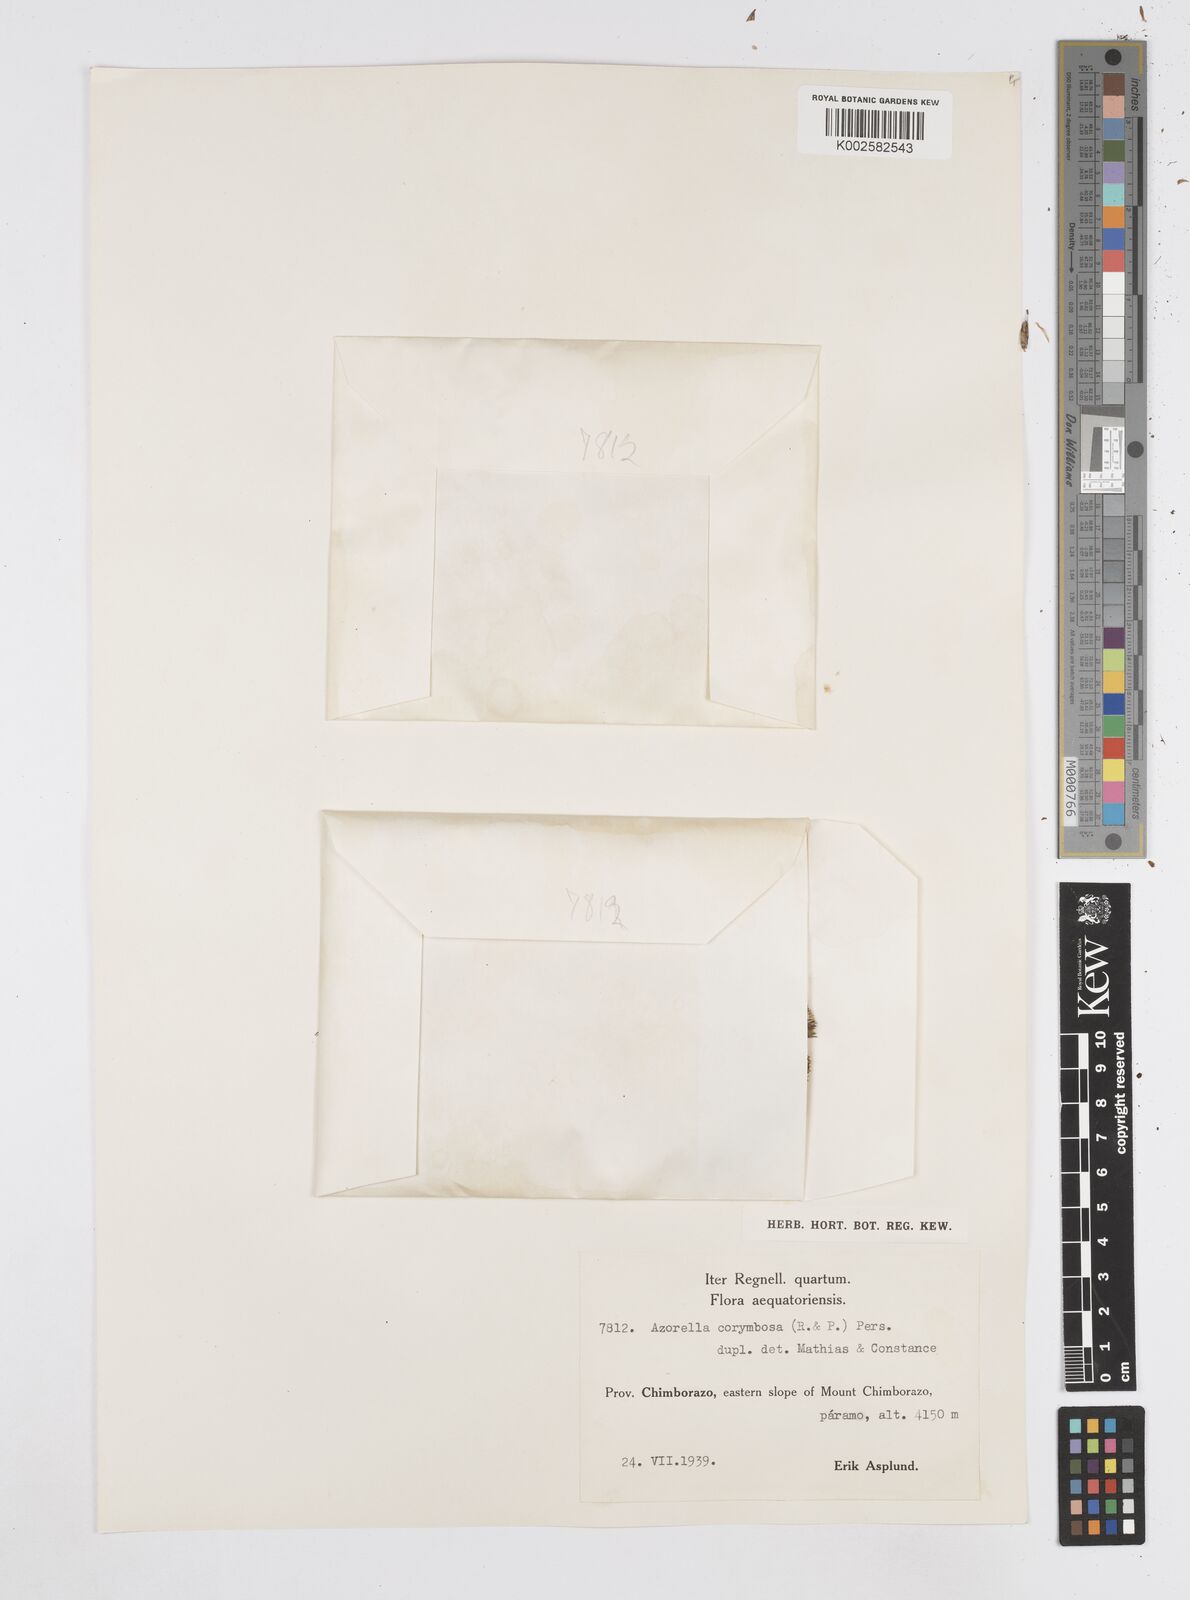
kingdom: Plantae
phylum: Tracheophyta
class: Magnoliopsida
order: Apiales
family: Apiaceae
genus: Azorella
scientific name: Azorella corymbosa
